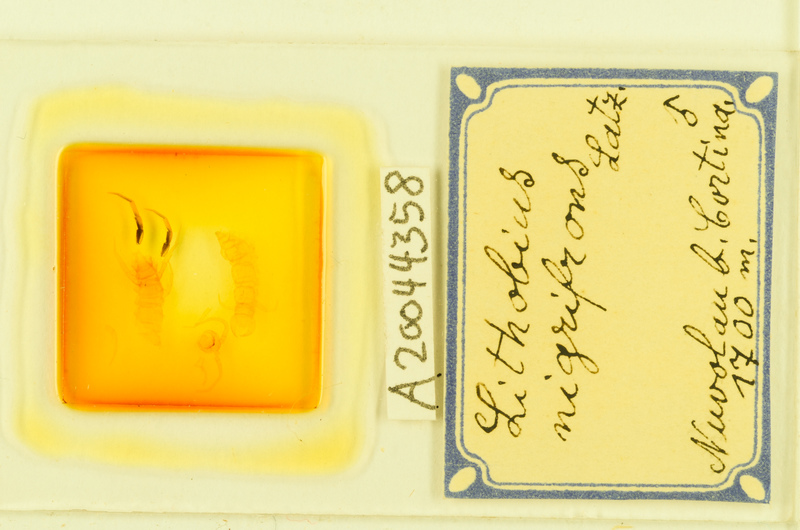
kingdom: Animalia
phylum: Arthropoda
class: Chilopoda
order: Geophilomorpha
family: Geophilidae
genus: Eurytion
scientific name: Eurytion tenebrosus
